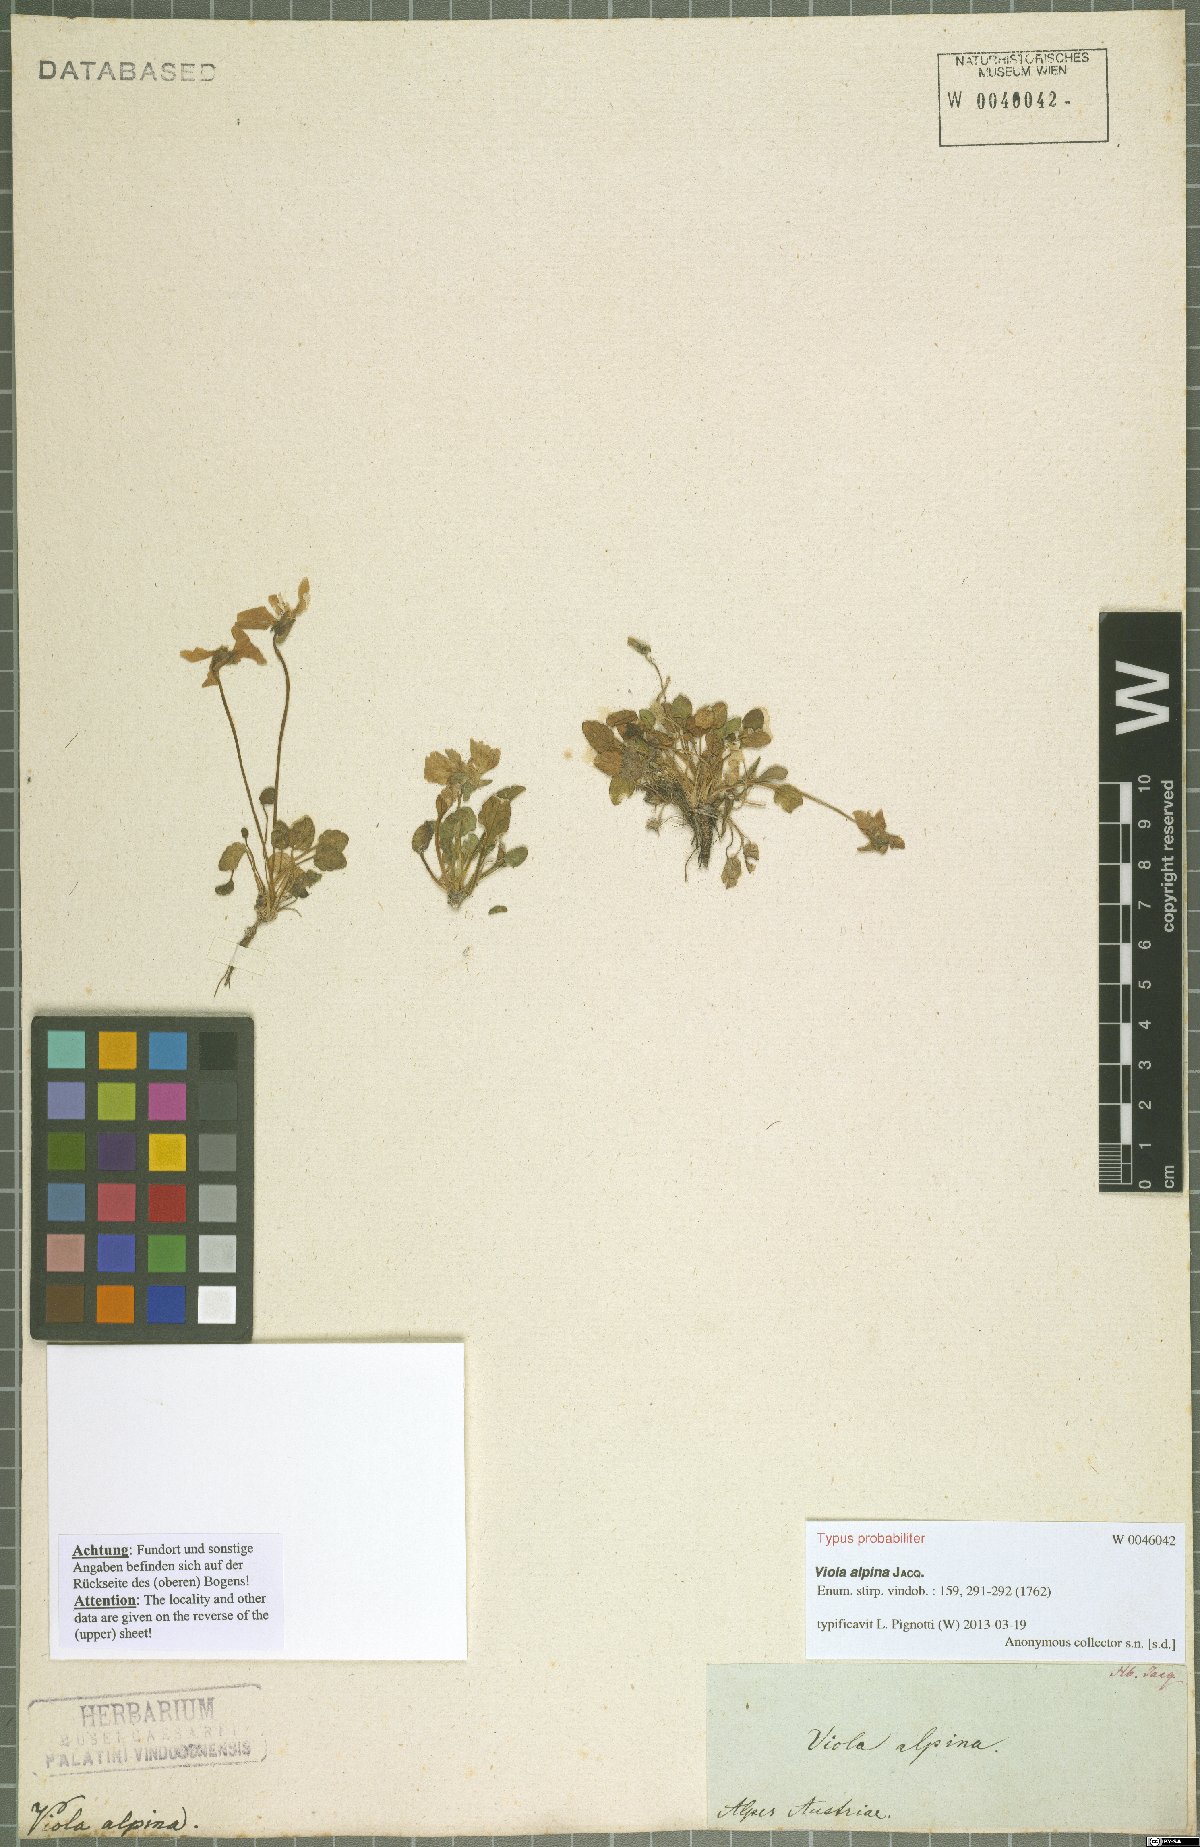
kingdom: Plantae
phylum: Tracheophyta
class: Magnoliopsida
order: Malpighiales
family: Violaceae
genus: Viola
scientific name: Viola alpina
